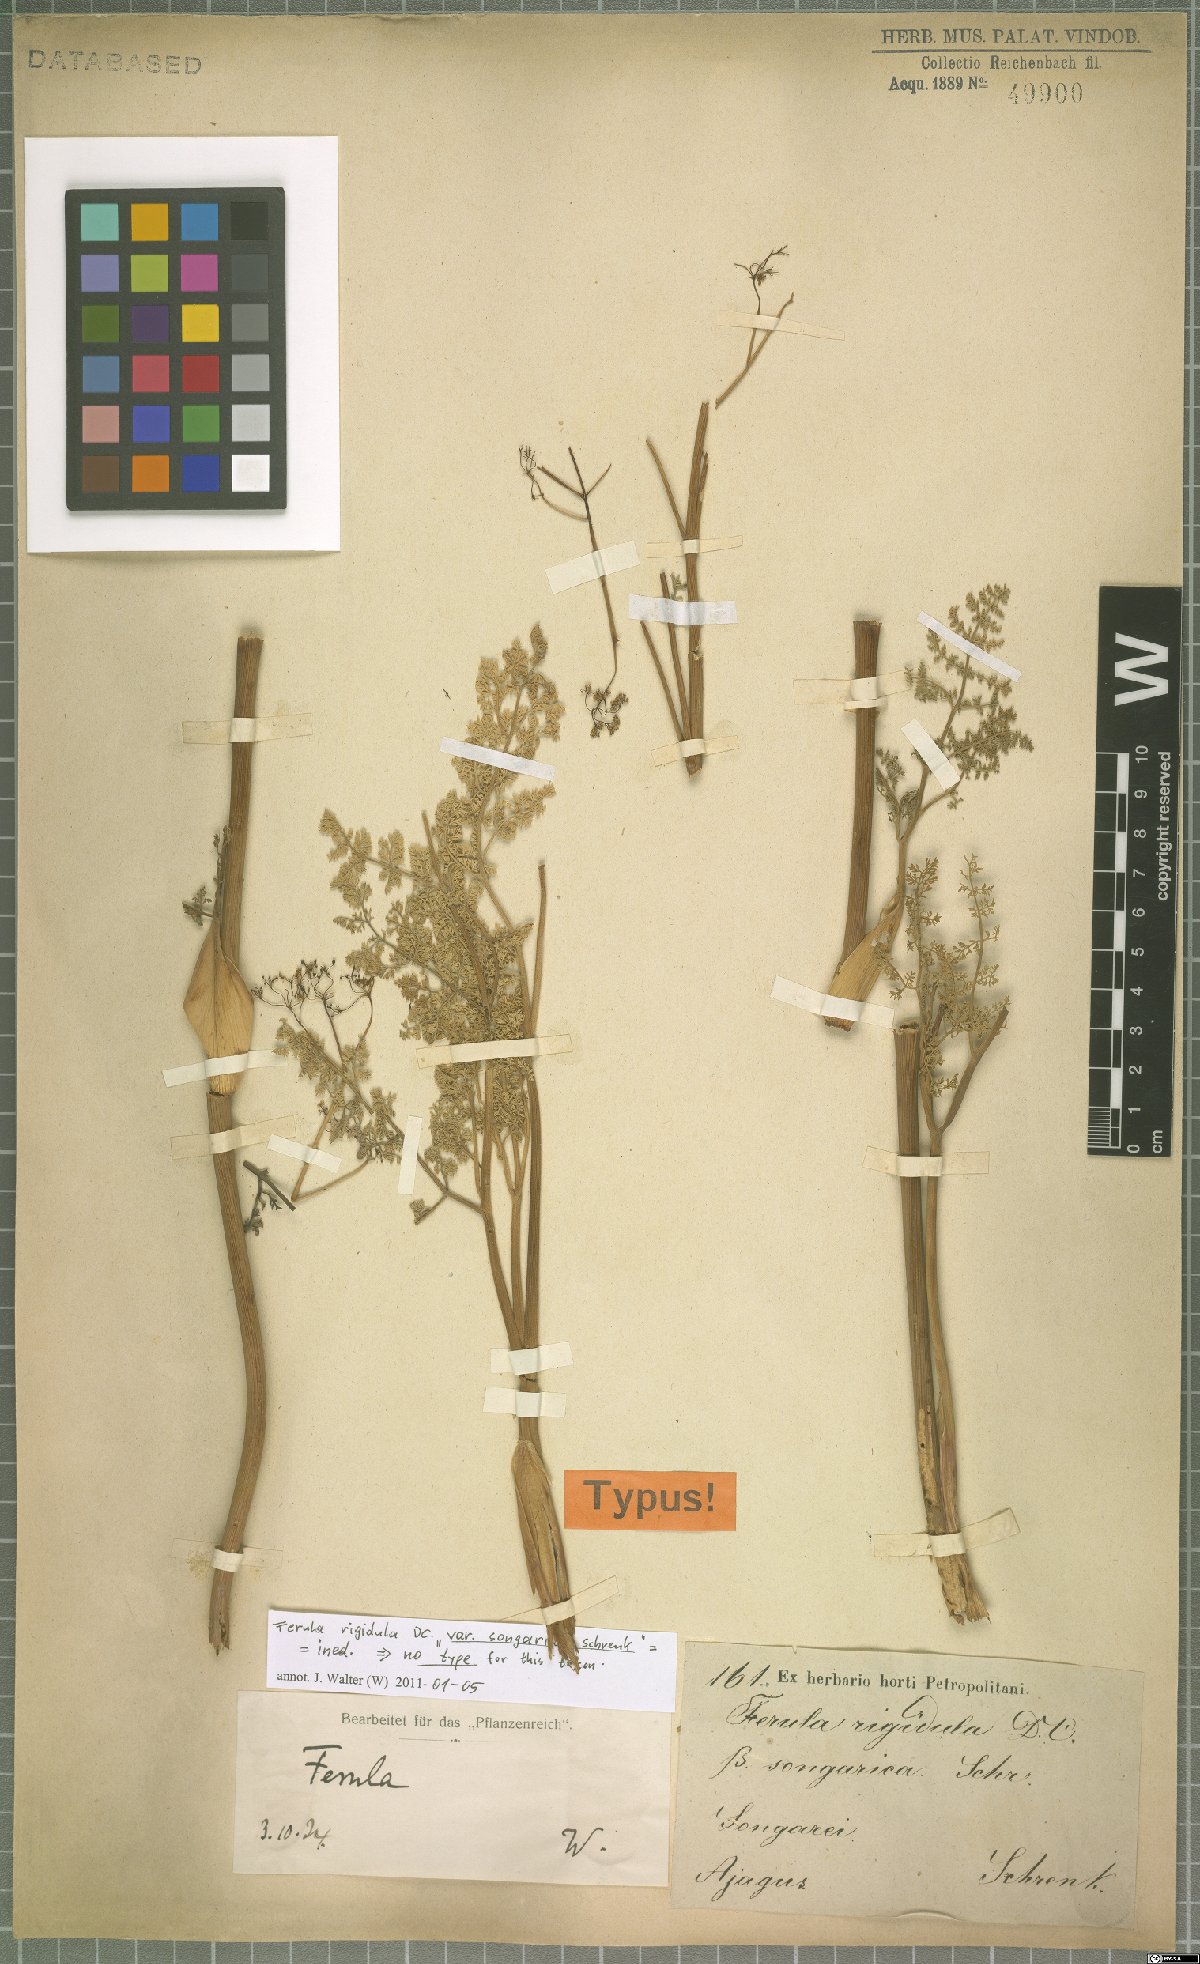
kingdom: Plantae
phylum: Tracheophyta
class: Magnoliopsida
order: Apiales
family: Apiaceae
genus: Ferula
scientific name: Ferula rigidula
